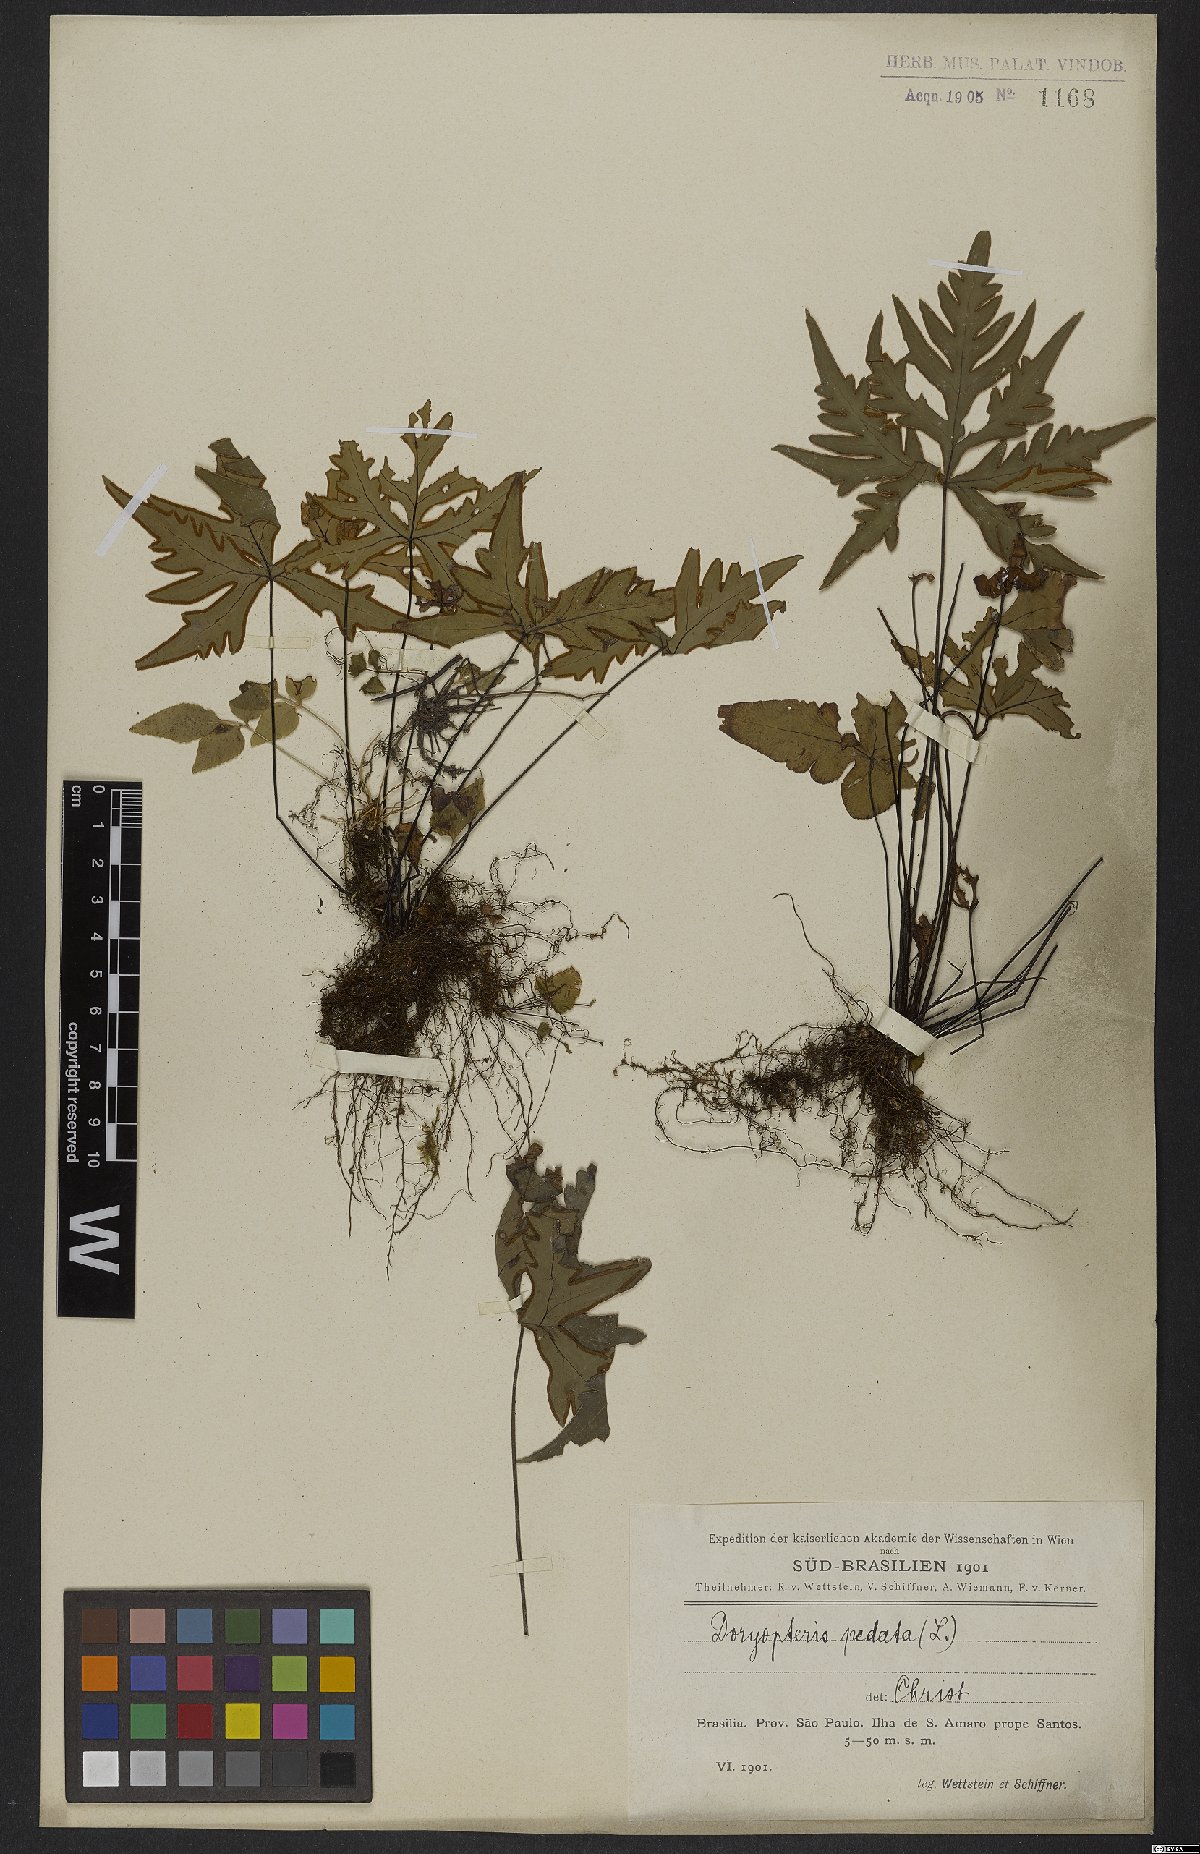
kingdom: Plantae
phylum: Tracheophyta
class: Polypodiopsida
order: Polypodiales
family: Pteridaceae
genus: Doryopteris
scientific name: Doryopteris pedata
